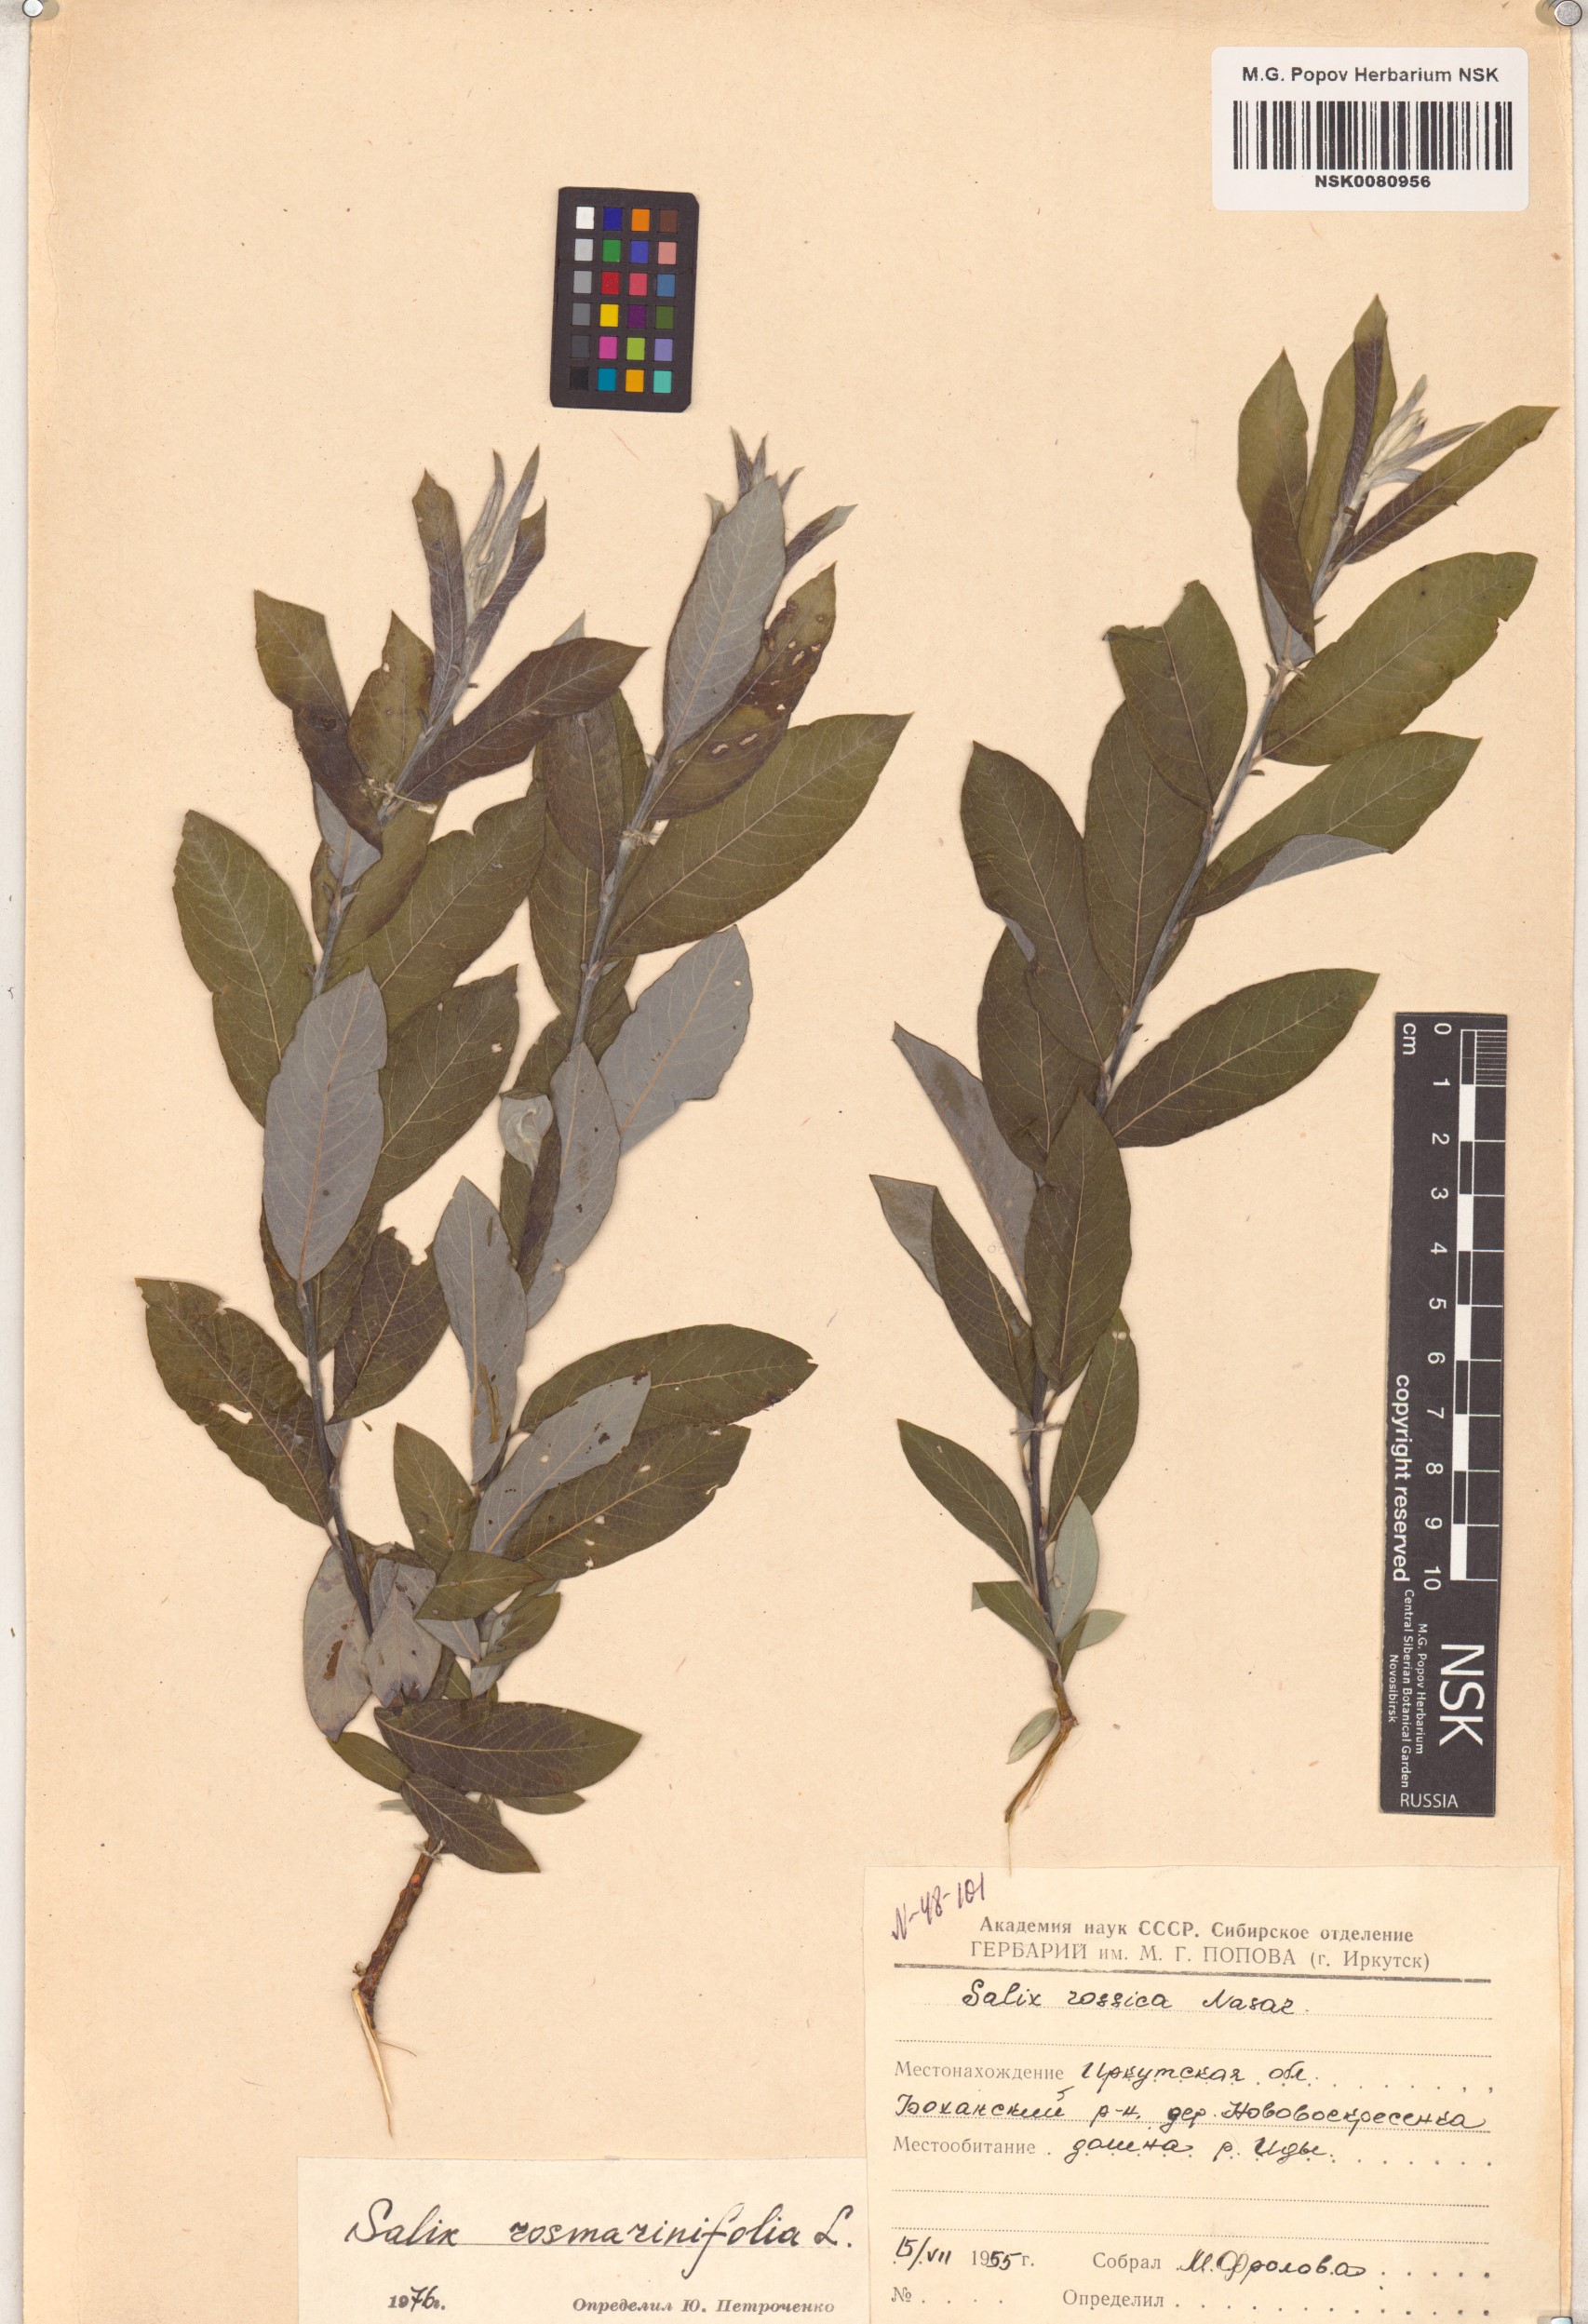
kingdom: Plantae
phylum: Tracheophyta
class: Magnoliopsida
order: Malpighiales
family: Salicaceae
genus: Salix
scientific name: Salix rosmarinifolia
